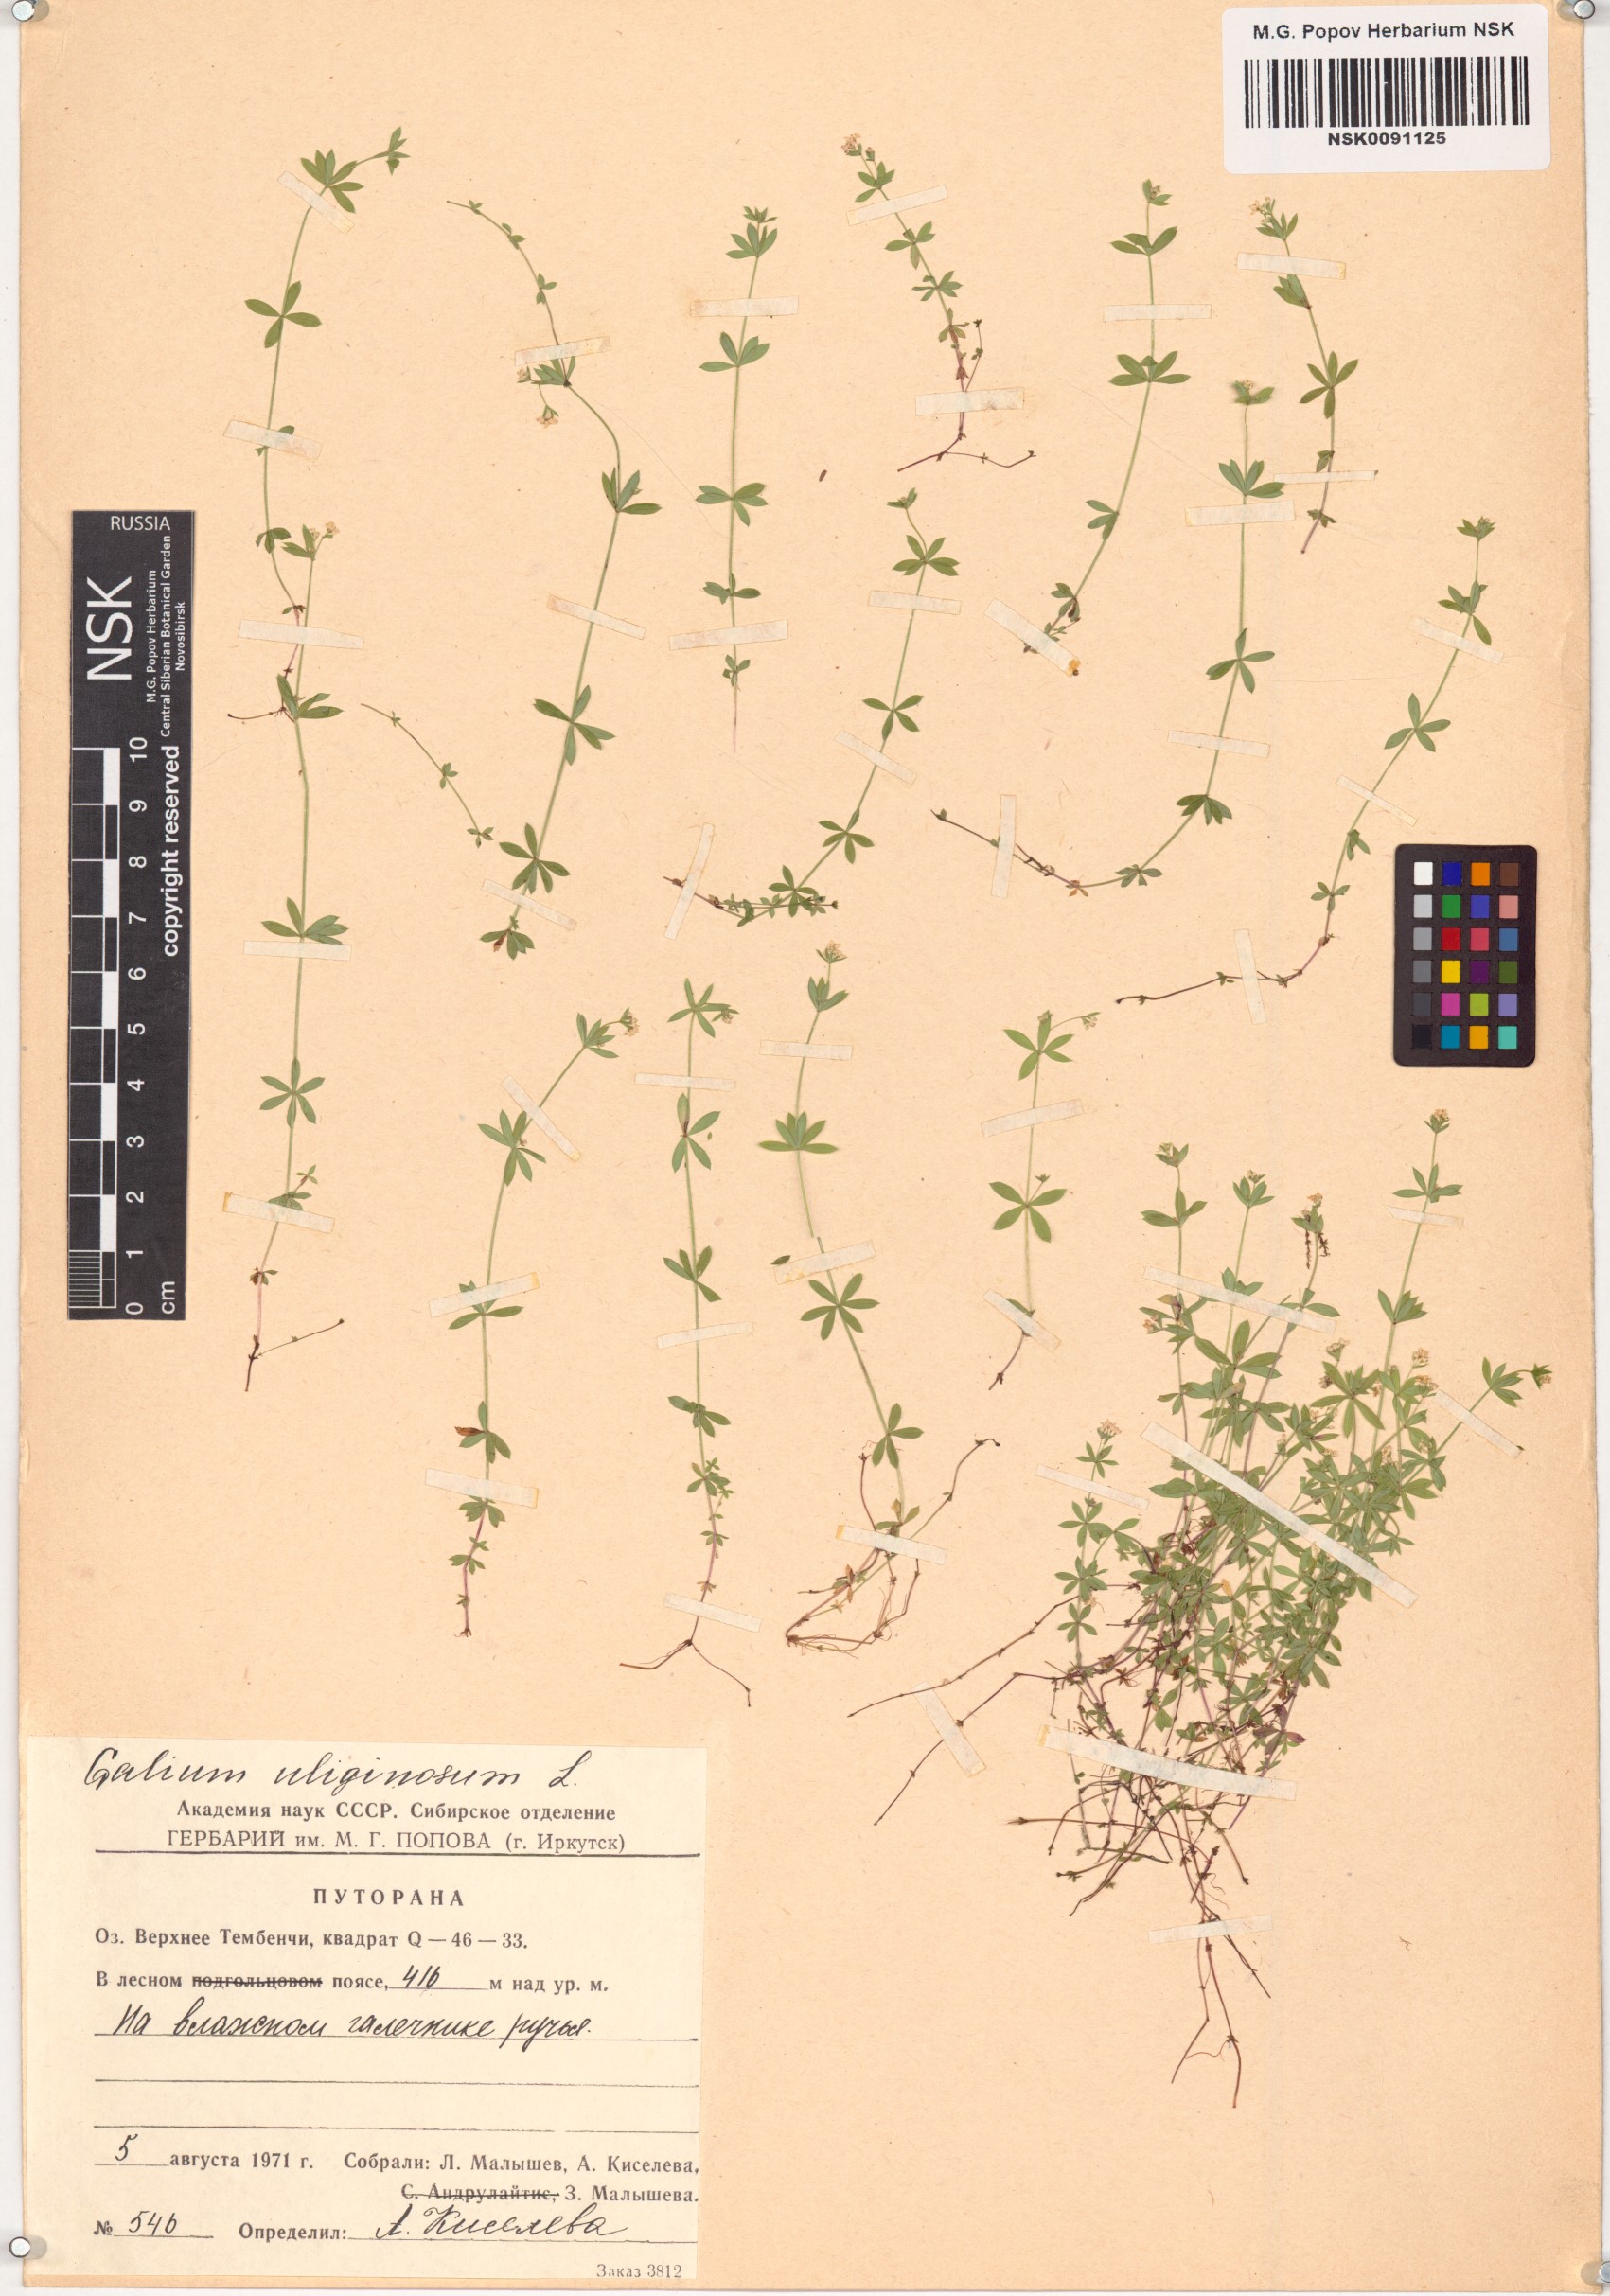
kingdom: Plantae
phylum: Tracheophyta
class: Magnoliopsida
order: Gentianales
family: Rubiaceae
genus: Galium
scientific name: Galium uliginosum
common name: Fen bedstraw
